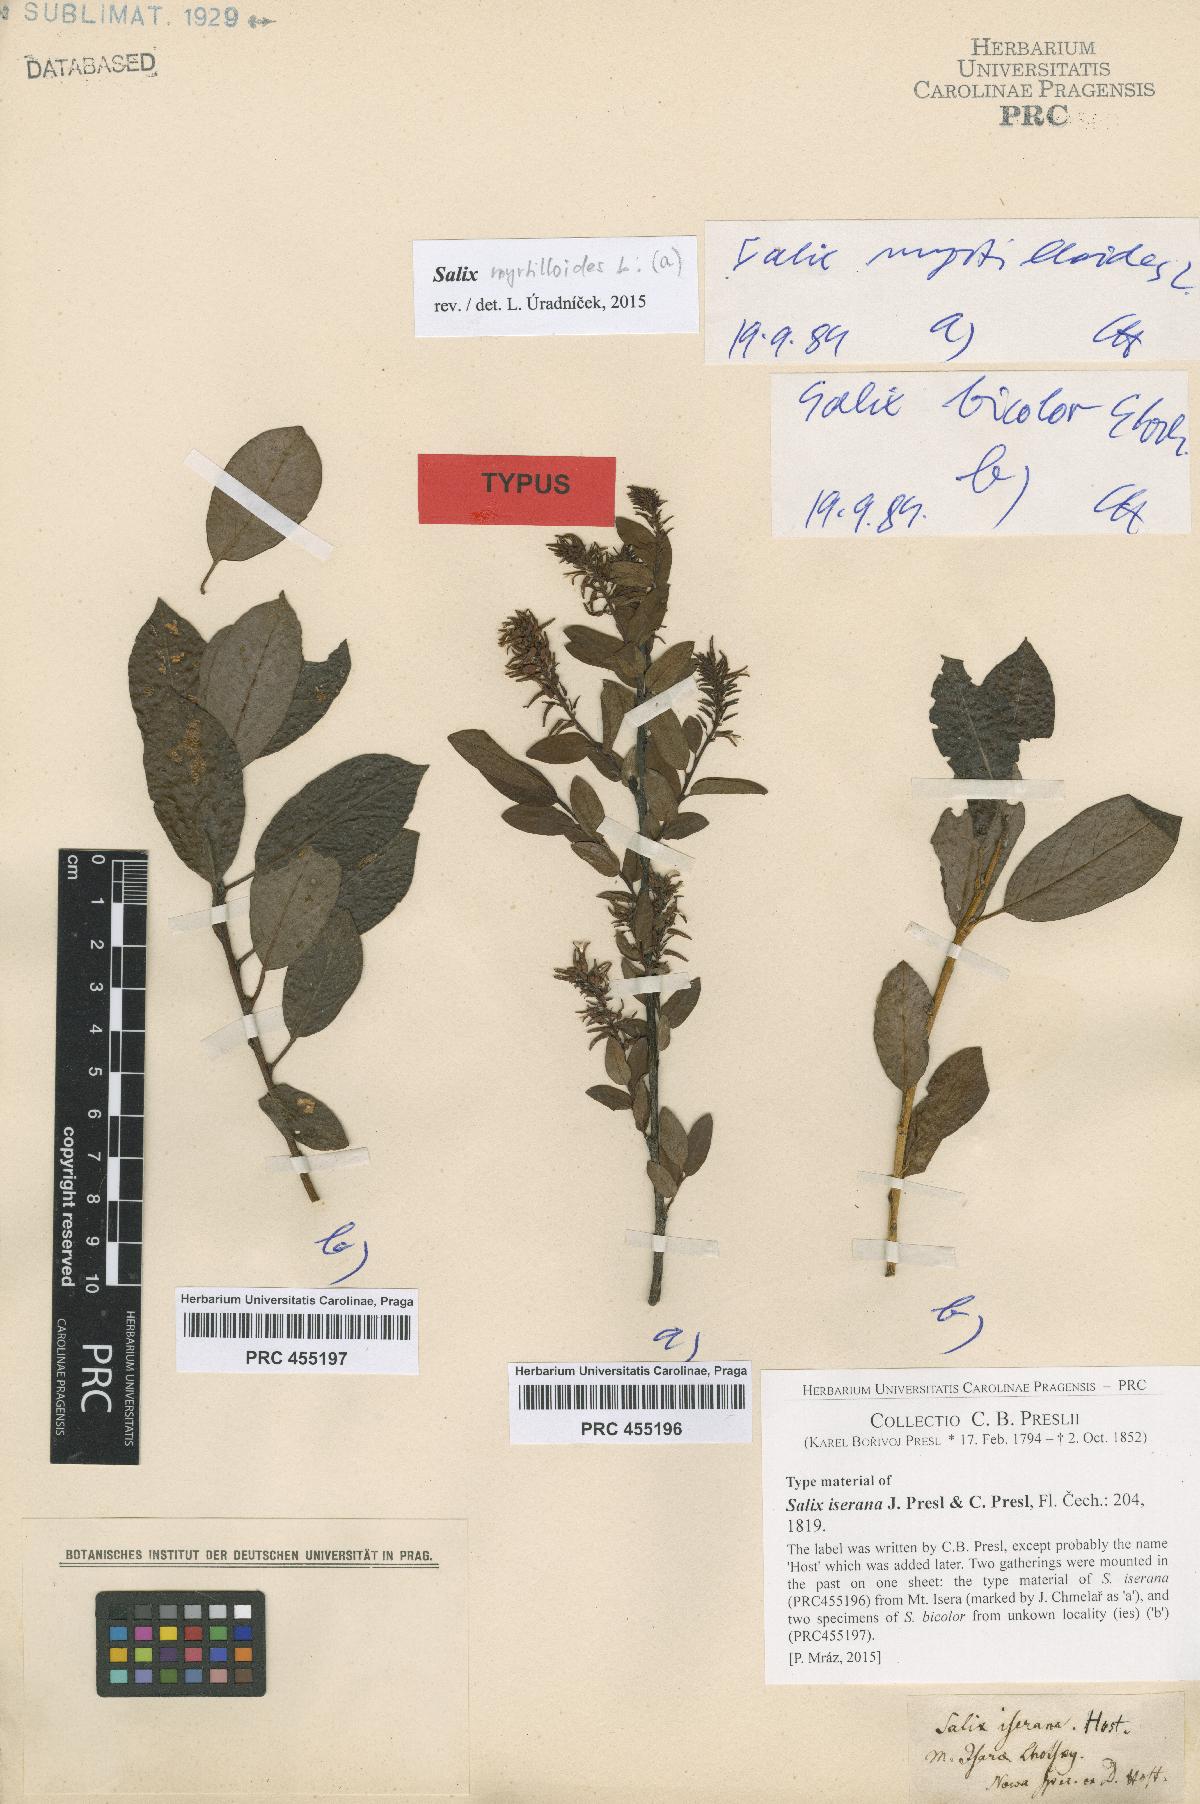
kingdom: Plantae
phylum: Tracheophyta
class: Magnoliopsida
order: Malpighiales
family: Salicaceae
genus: Salix
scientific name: Salix bicolor
